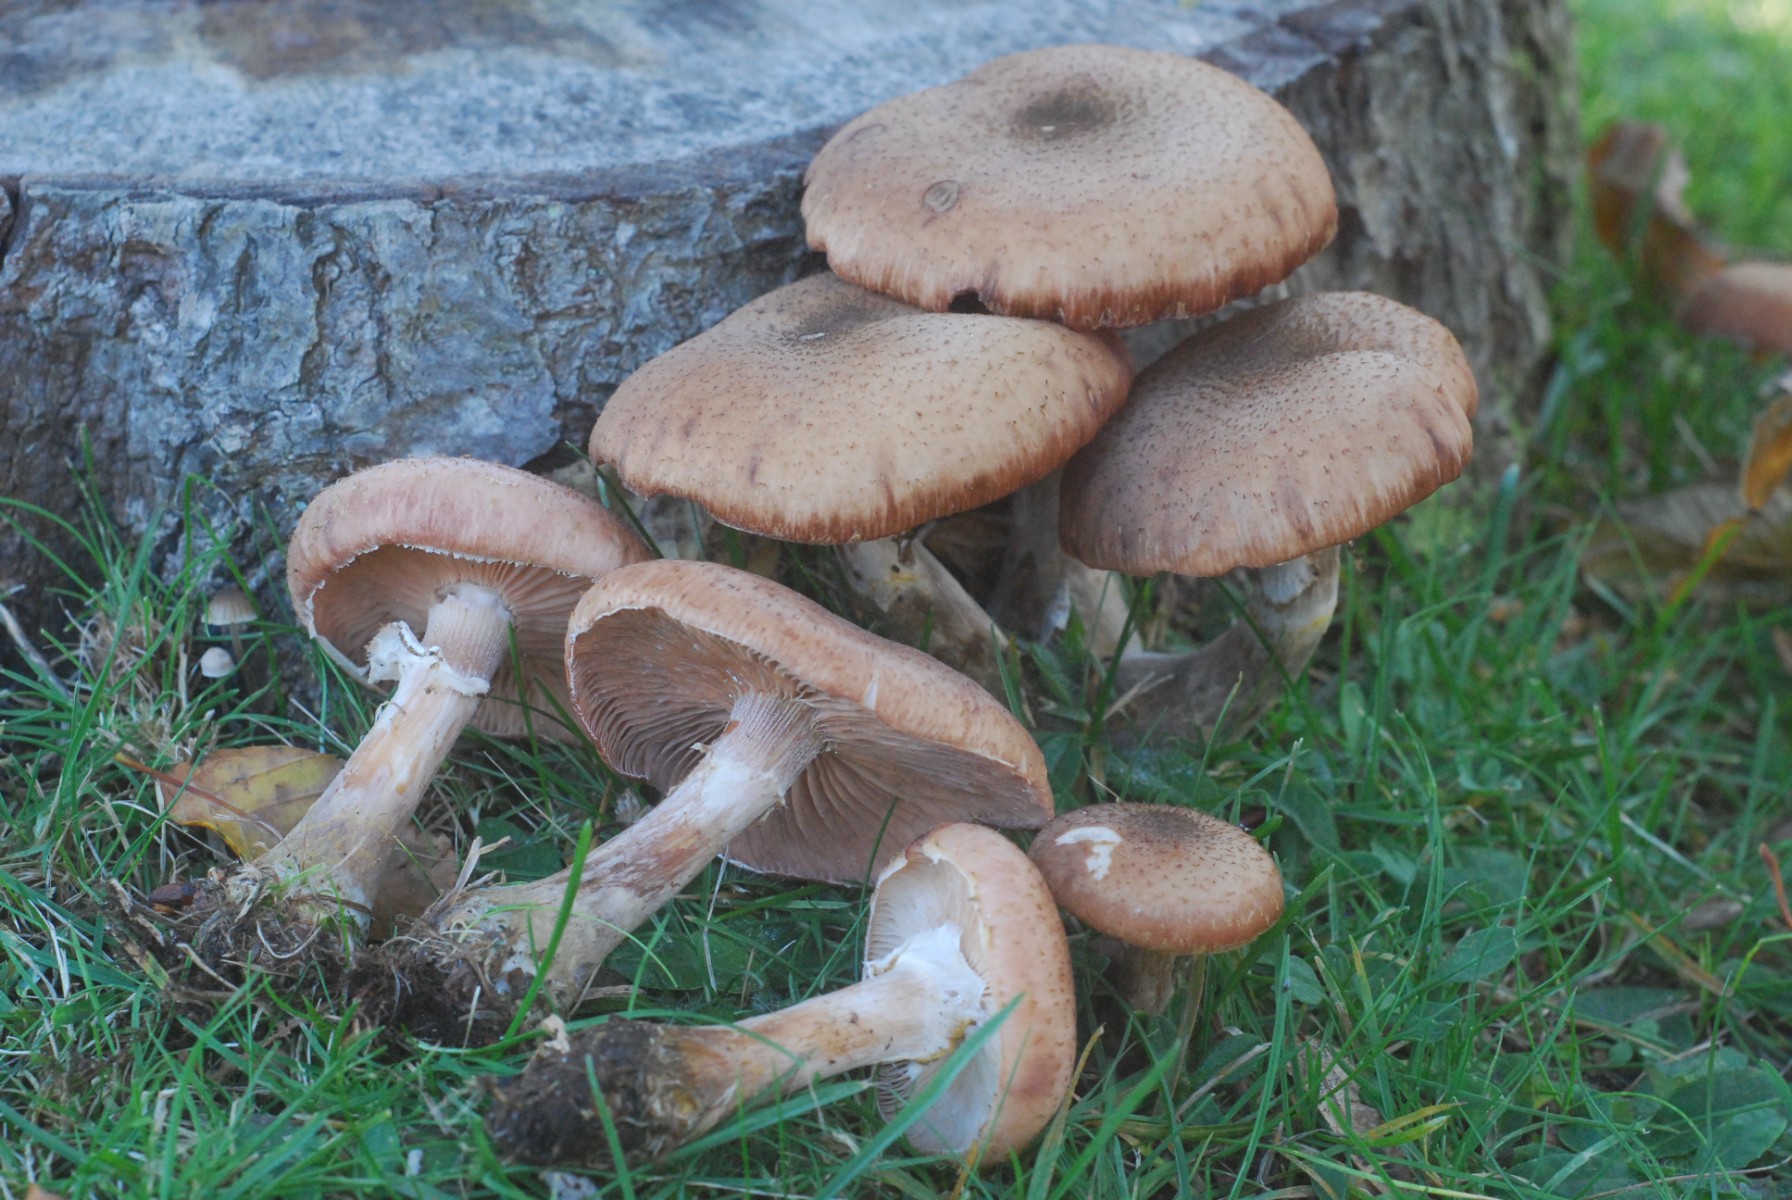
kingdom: Fungi
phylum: Basidiomycota
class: Agaricomycetes
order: Agaricales
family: Physalacriaceae
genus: Armillaria
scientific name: Armillaria lutea
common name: køllestokket honningsvamp
